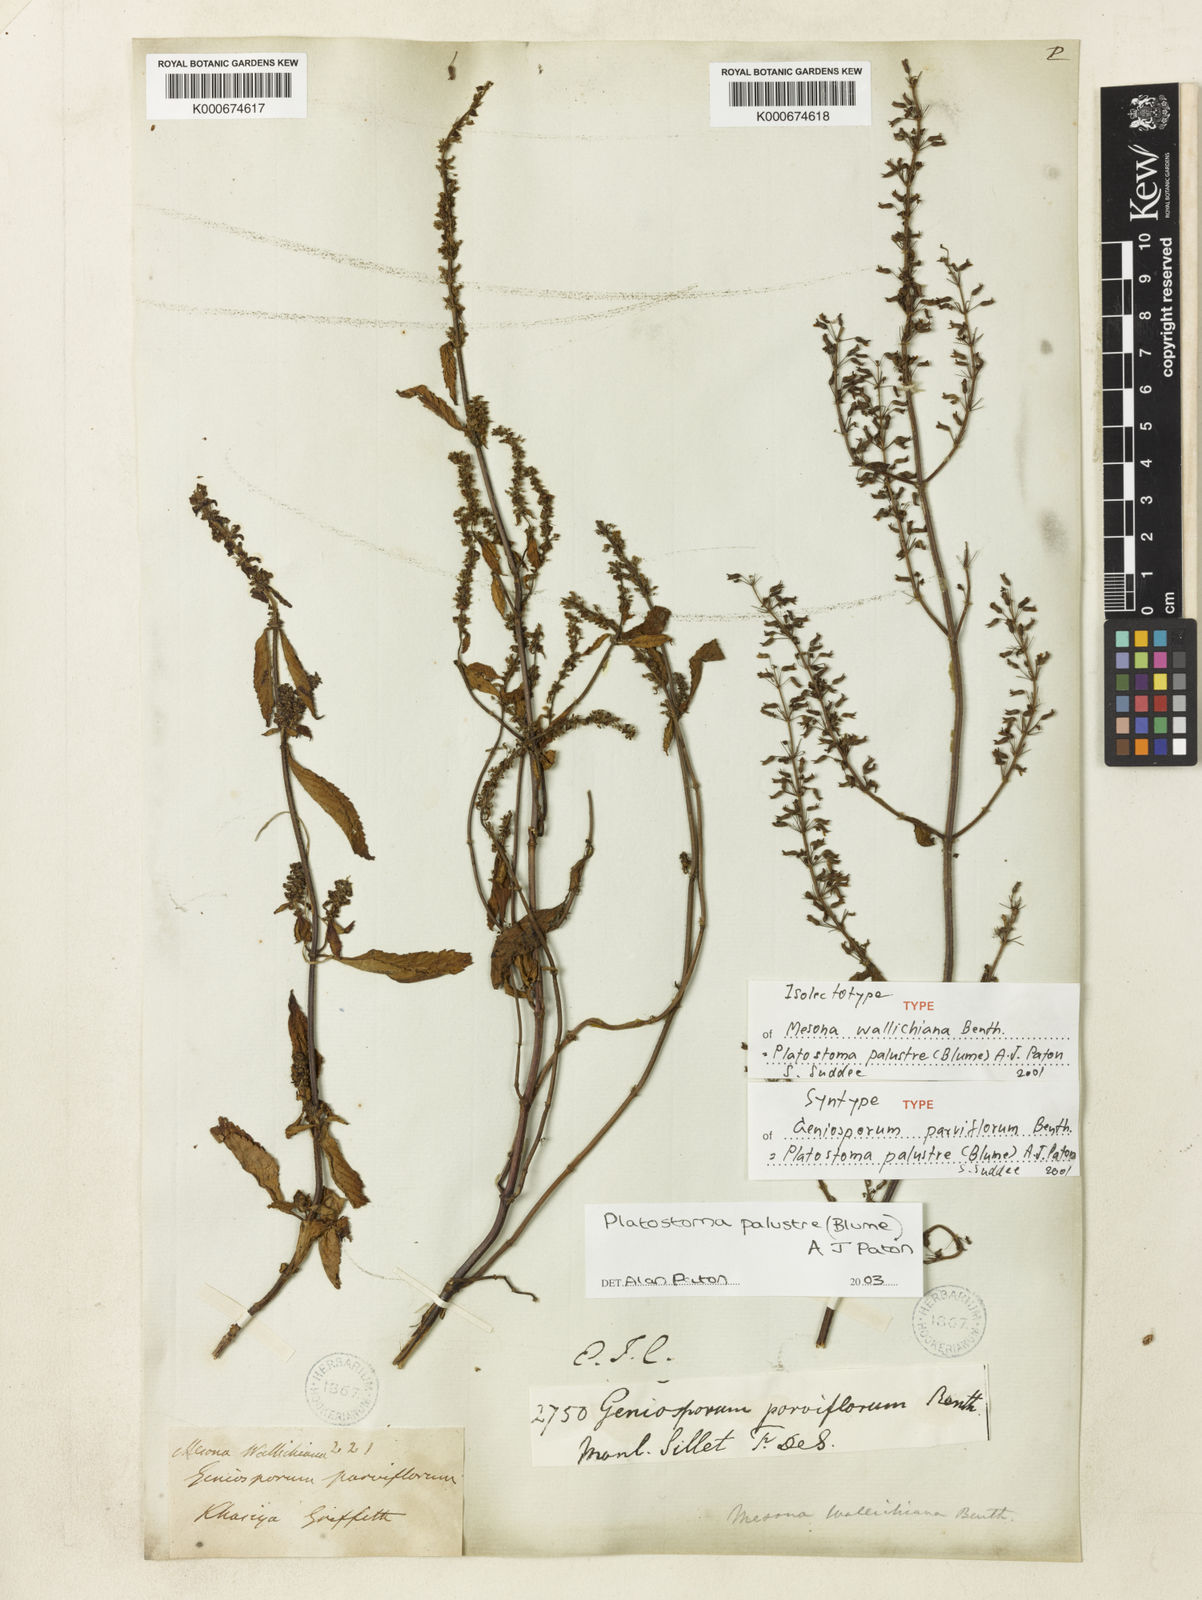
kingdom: Plantae
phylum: Tracheophyta
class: Magnoliopsida
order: Lamiales
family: Lamiaceae
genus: Platostoma
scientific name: Platostoma palustre
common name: Black cincau
